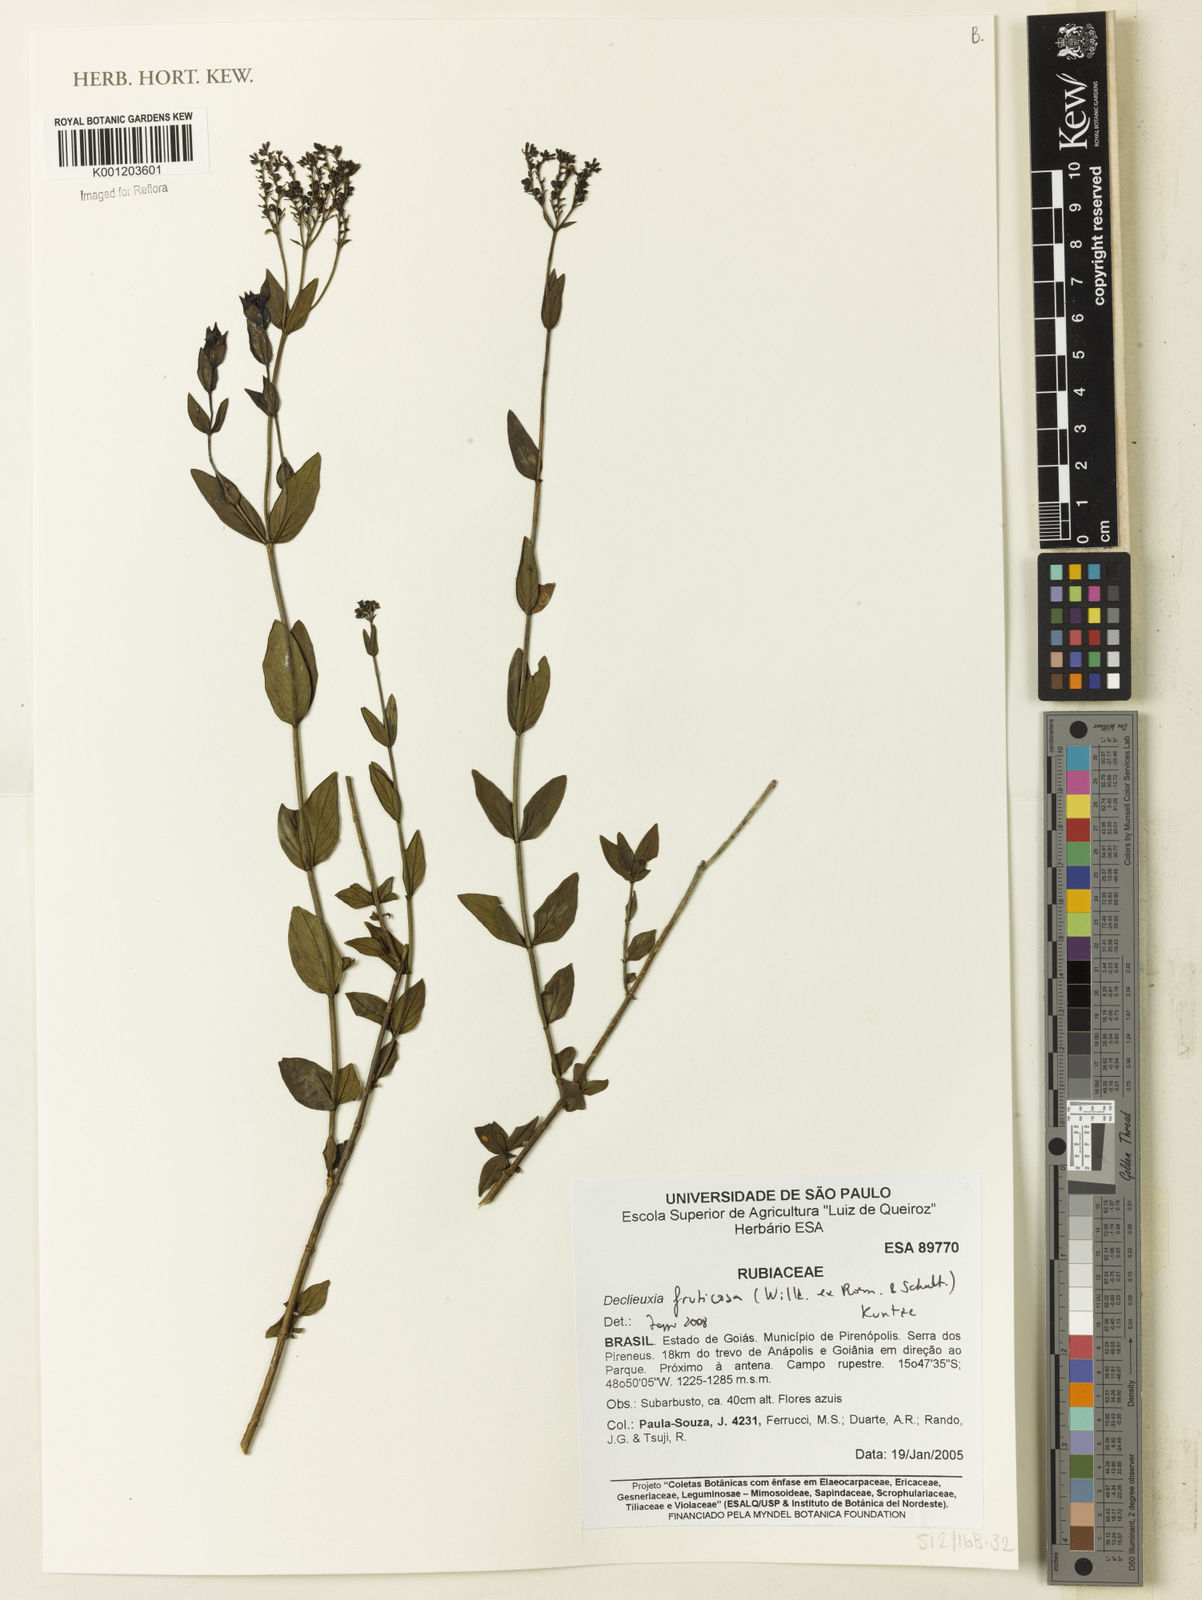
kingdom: Plantae
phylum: Tracheophyta
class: Magnoliopsida
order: Gentianales
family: Rubiaceae
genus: Declieuxia
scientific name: Declieuxia fruticosa
